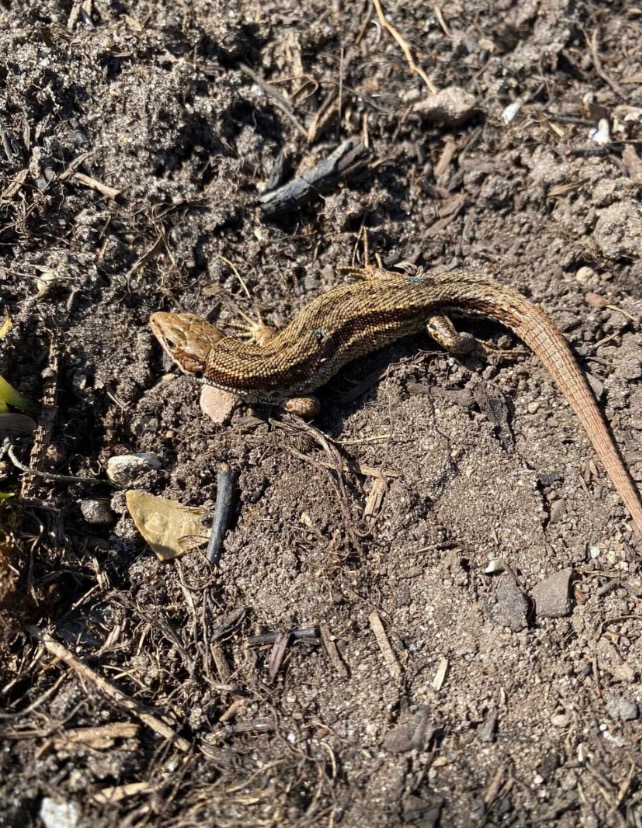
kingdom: Animalia
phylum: Chordata
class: Squamata
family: Lacertidae
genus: Zootoca
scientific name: Zootoca vivipara
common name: Skovfirben
